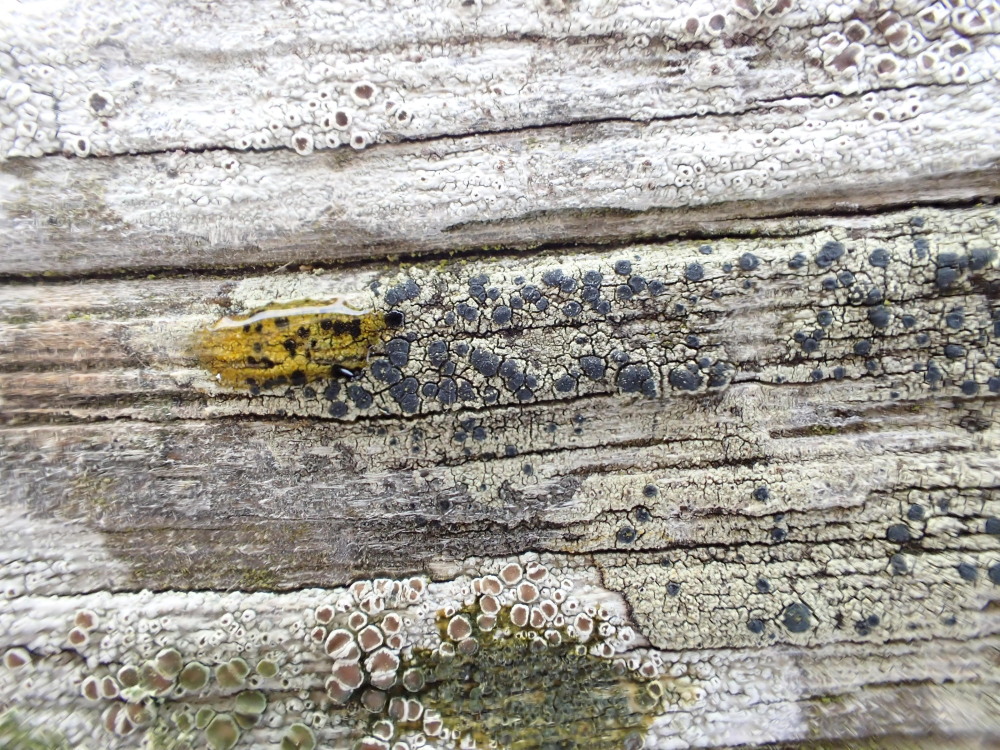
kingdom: Fungi
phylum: Ascomycota
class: Lecanoromycetes
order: Lecanorales
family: Lecanoraceae
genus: Lecidella
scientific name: Lecidella elaeochroma
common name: grågrøn skivelav
